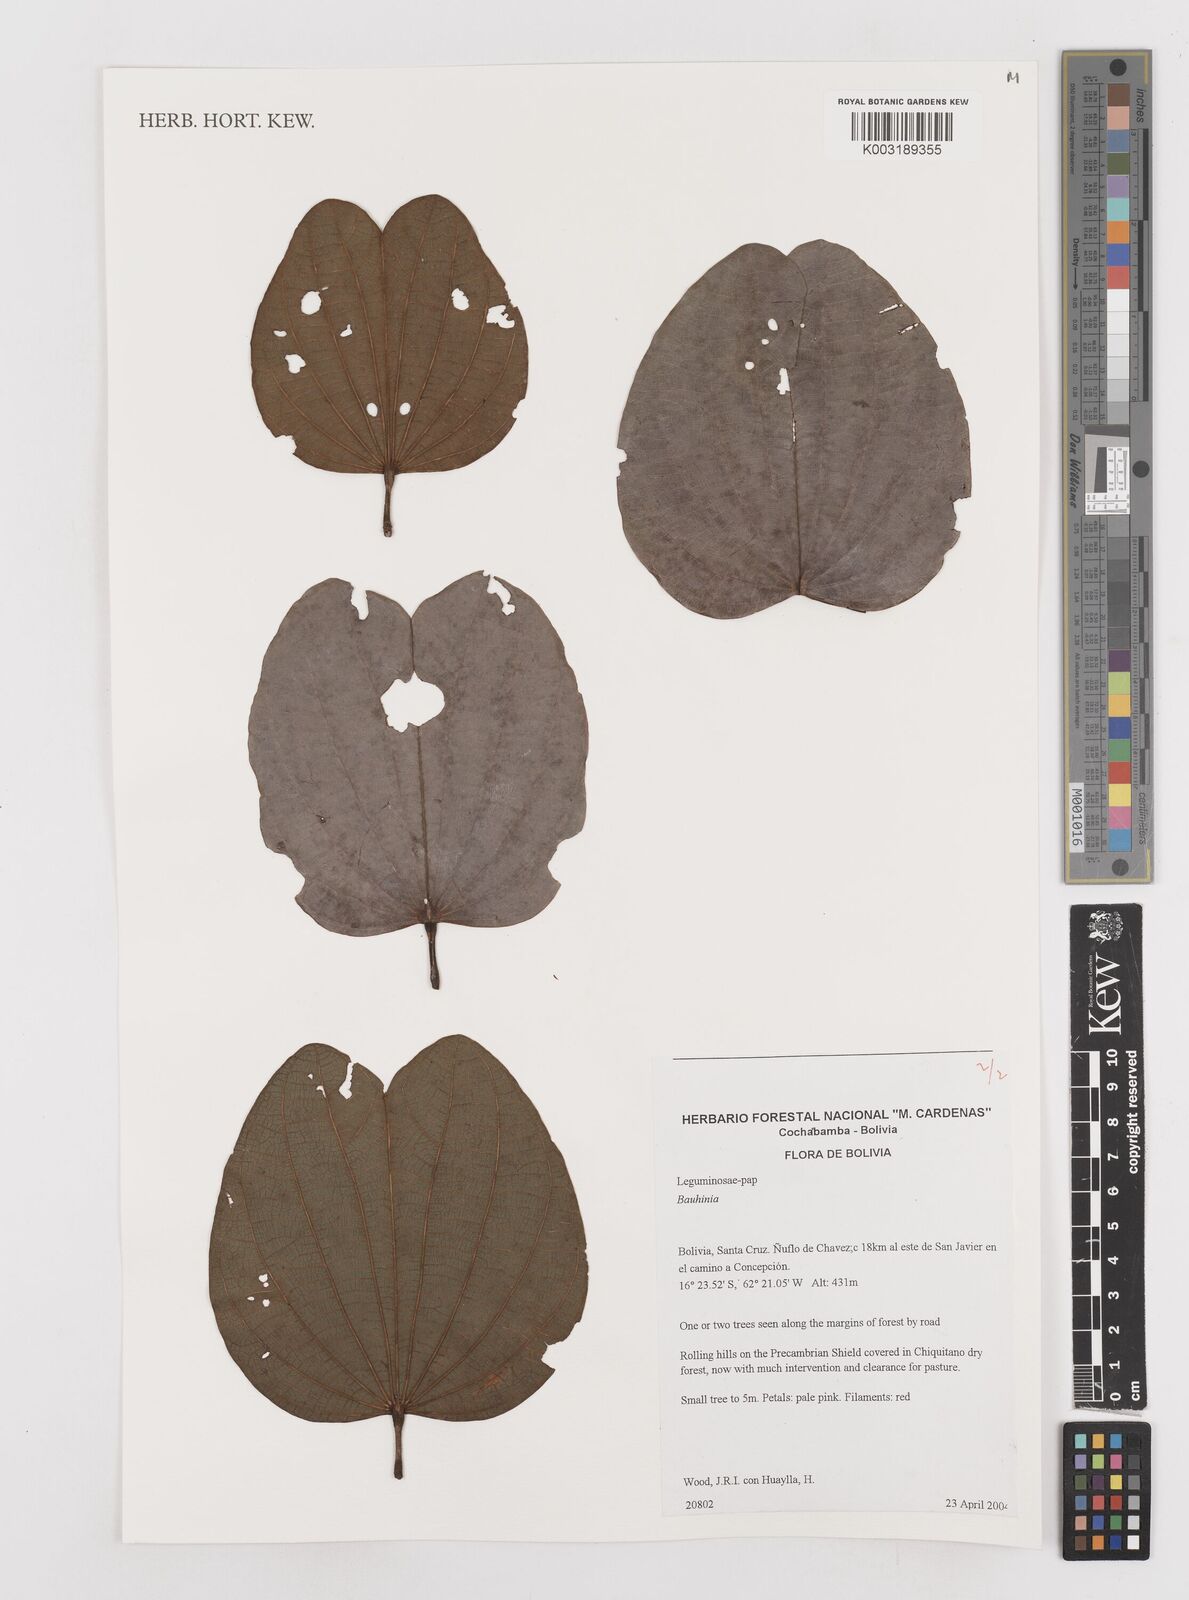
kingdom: Plantae
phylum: Tracheophyta
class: Magnoliopsida
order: Fabales
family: Fabaceae
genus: Bauhinia
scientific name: Bauhinia
